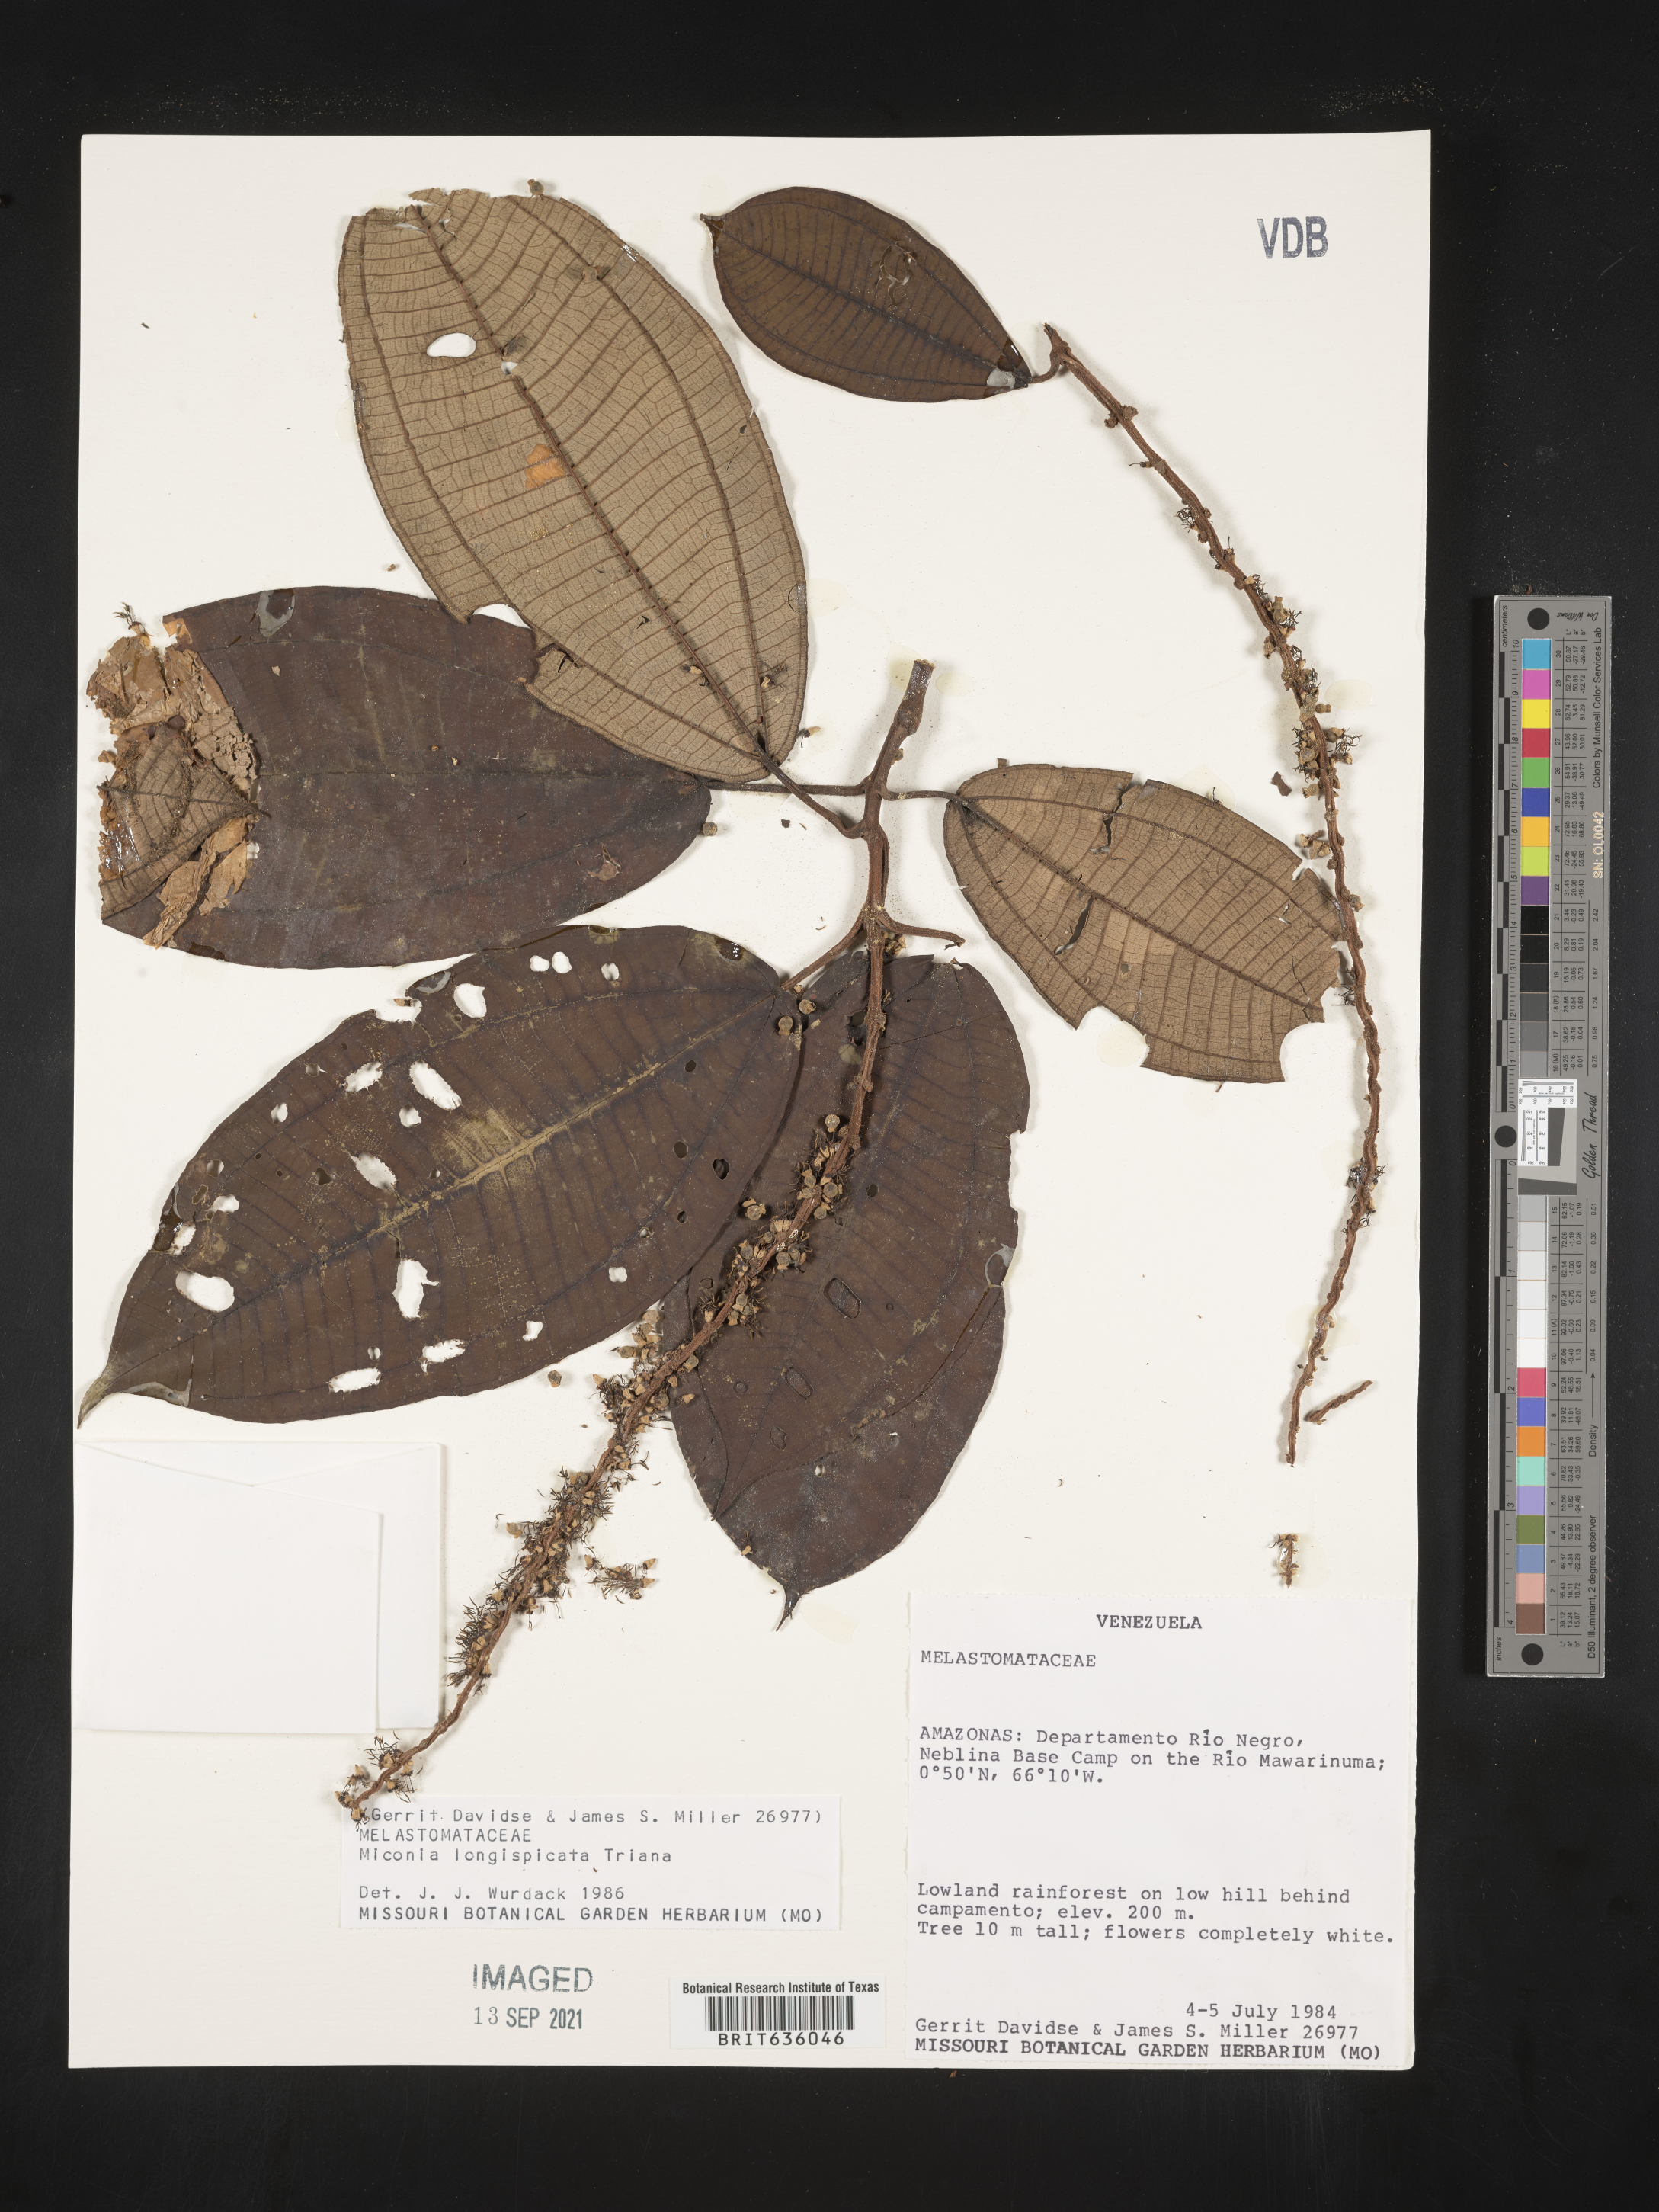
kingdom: Plantae
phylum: Tracheophyta
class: Magnoliopsida
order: Myrtales
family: Melastomataceae
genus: Miconia
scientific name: Miconia
